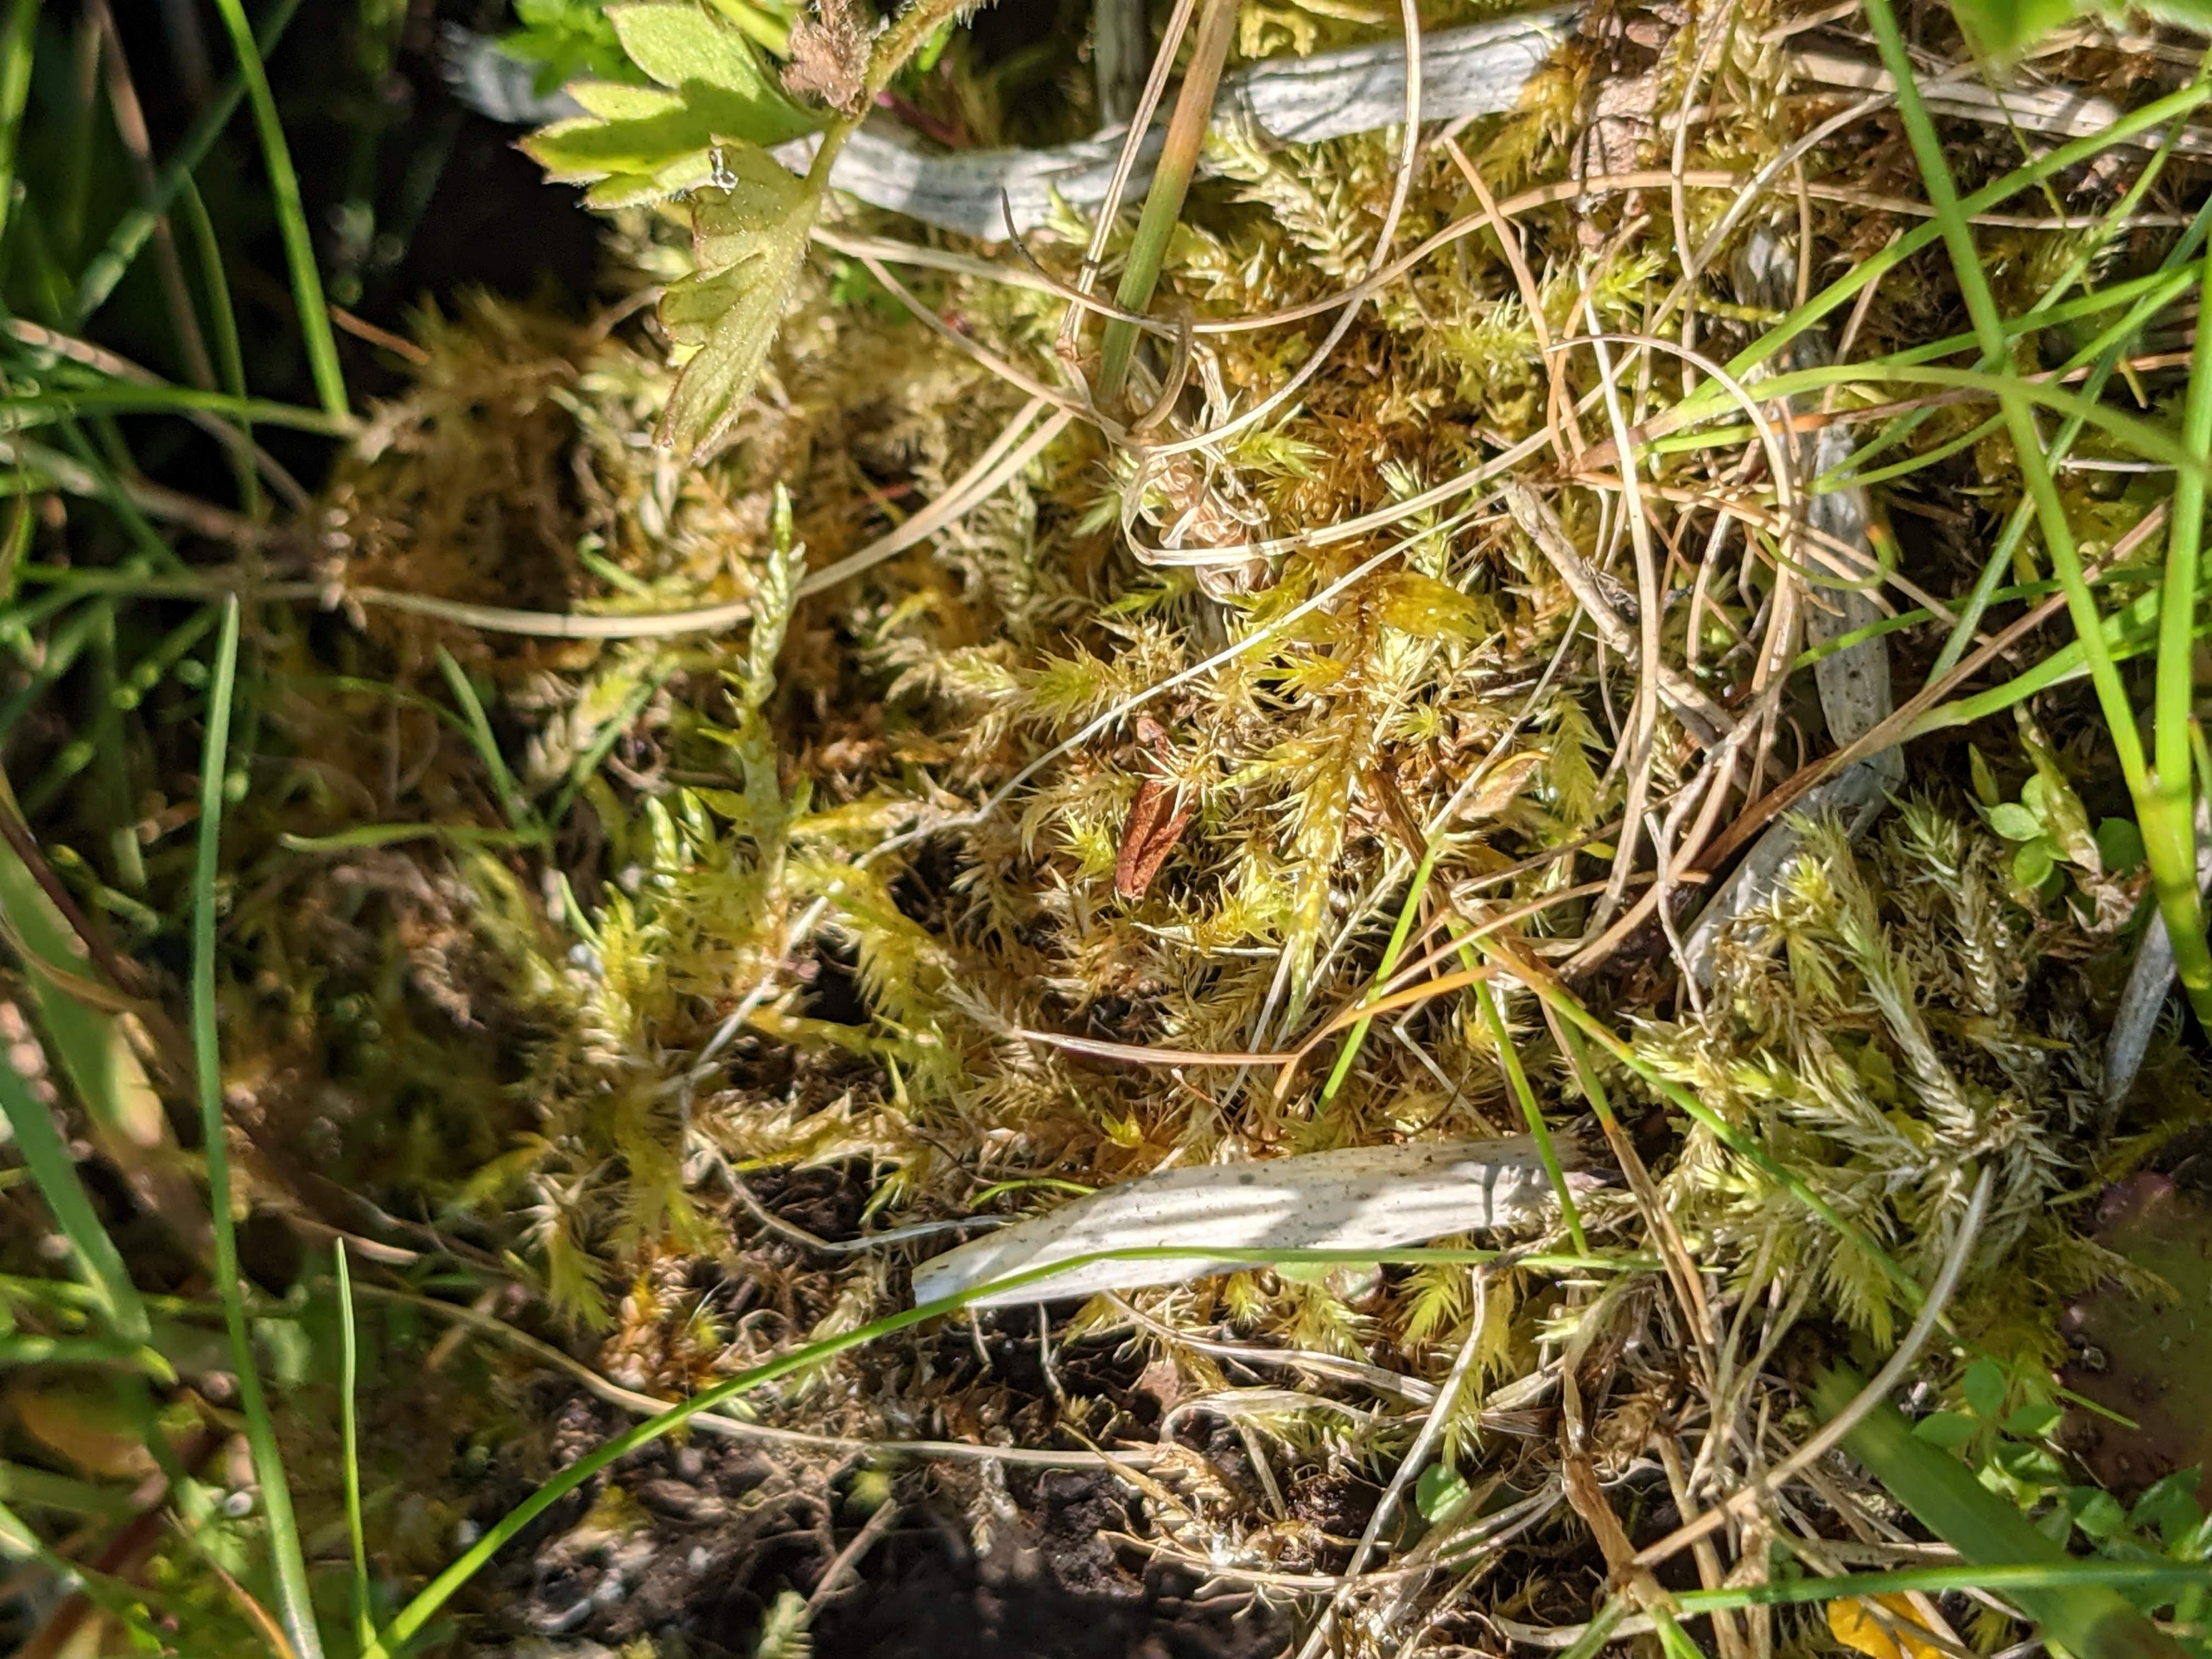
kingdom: Plantae
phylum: Bryophyta
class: Bryopsida
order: Hypnales
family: Brachytheciaceae
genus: Brachythecium
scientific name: Brachythecium mildeanum
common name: Kær-kortkapsel
